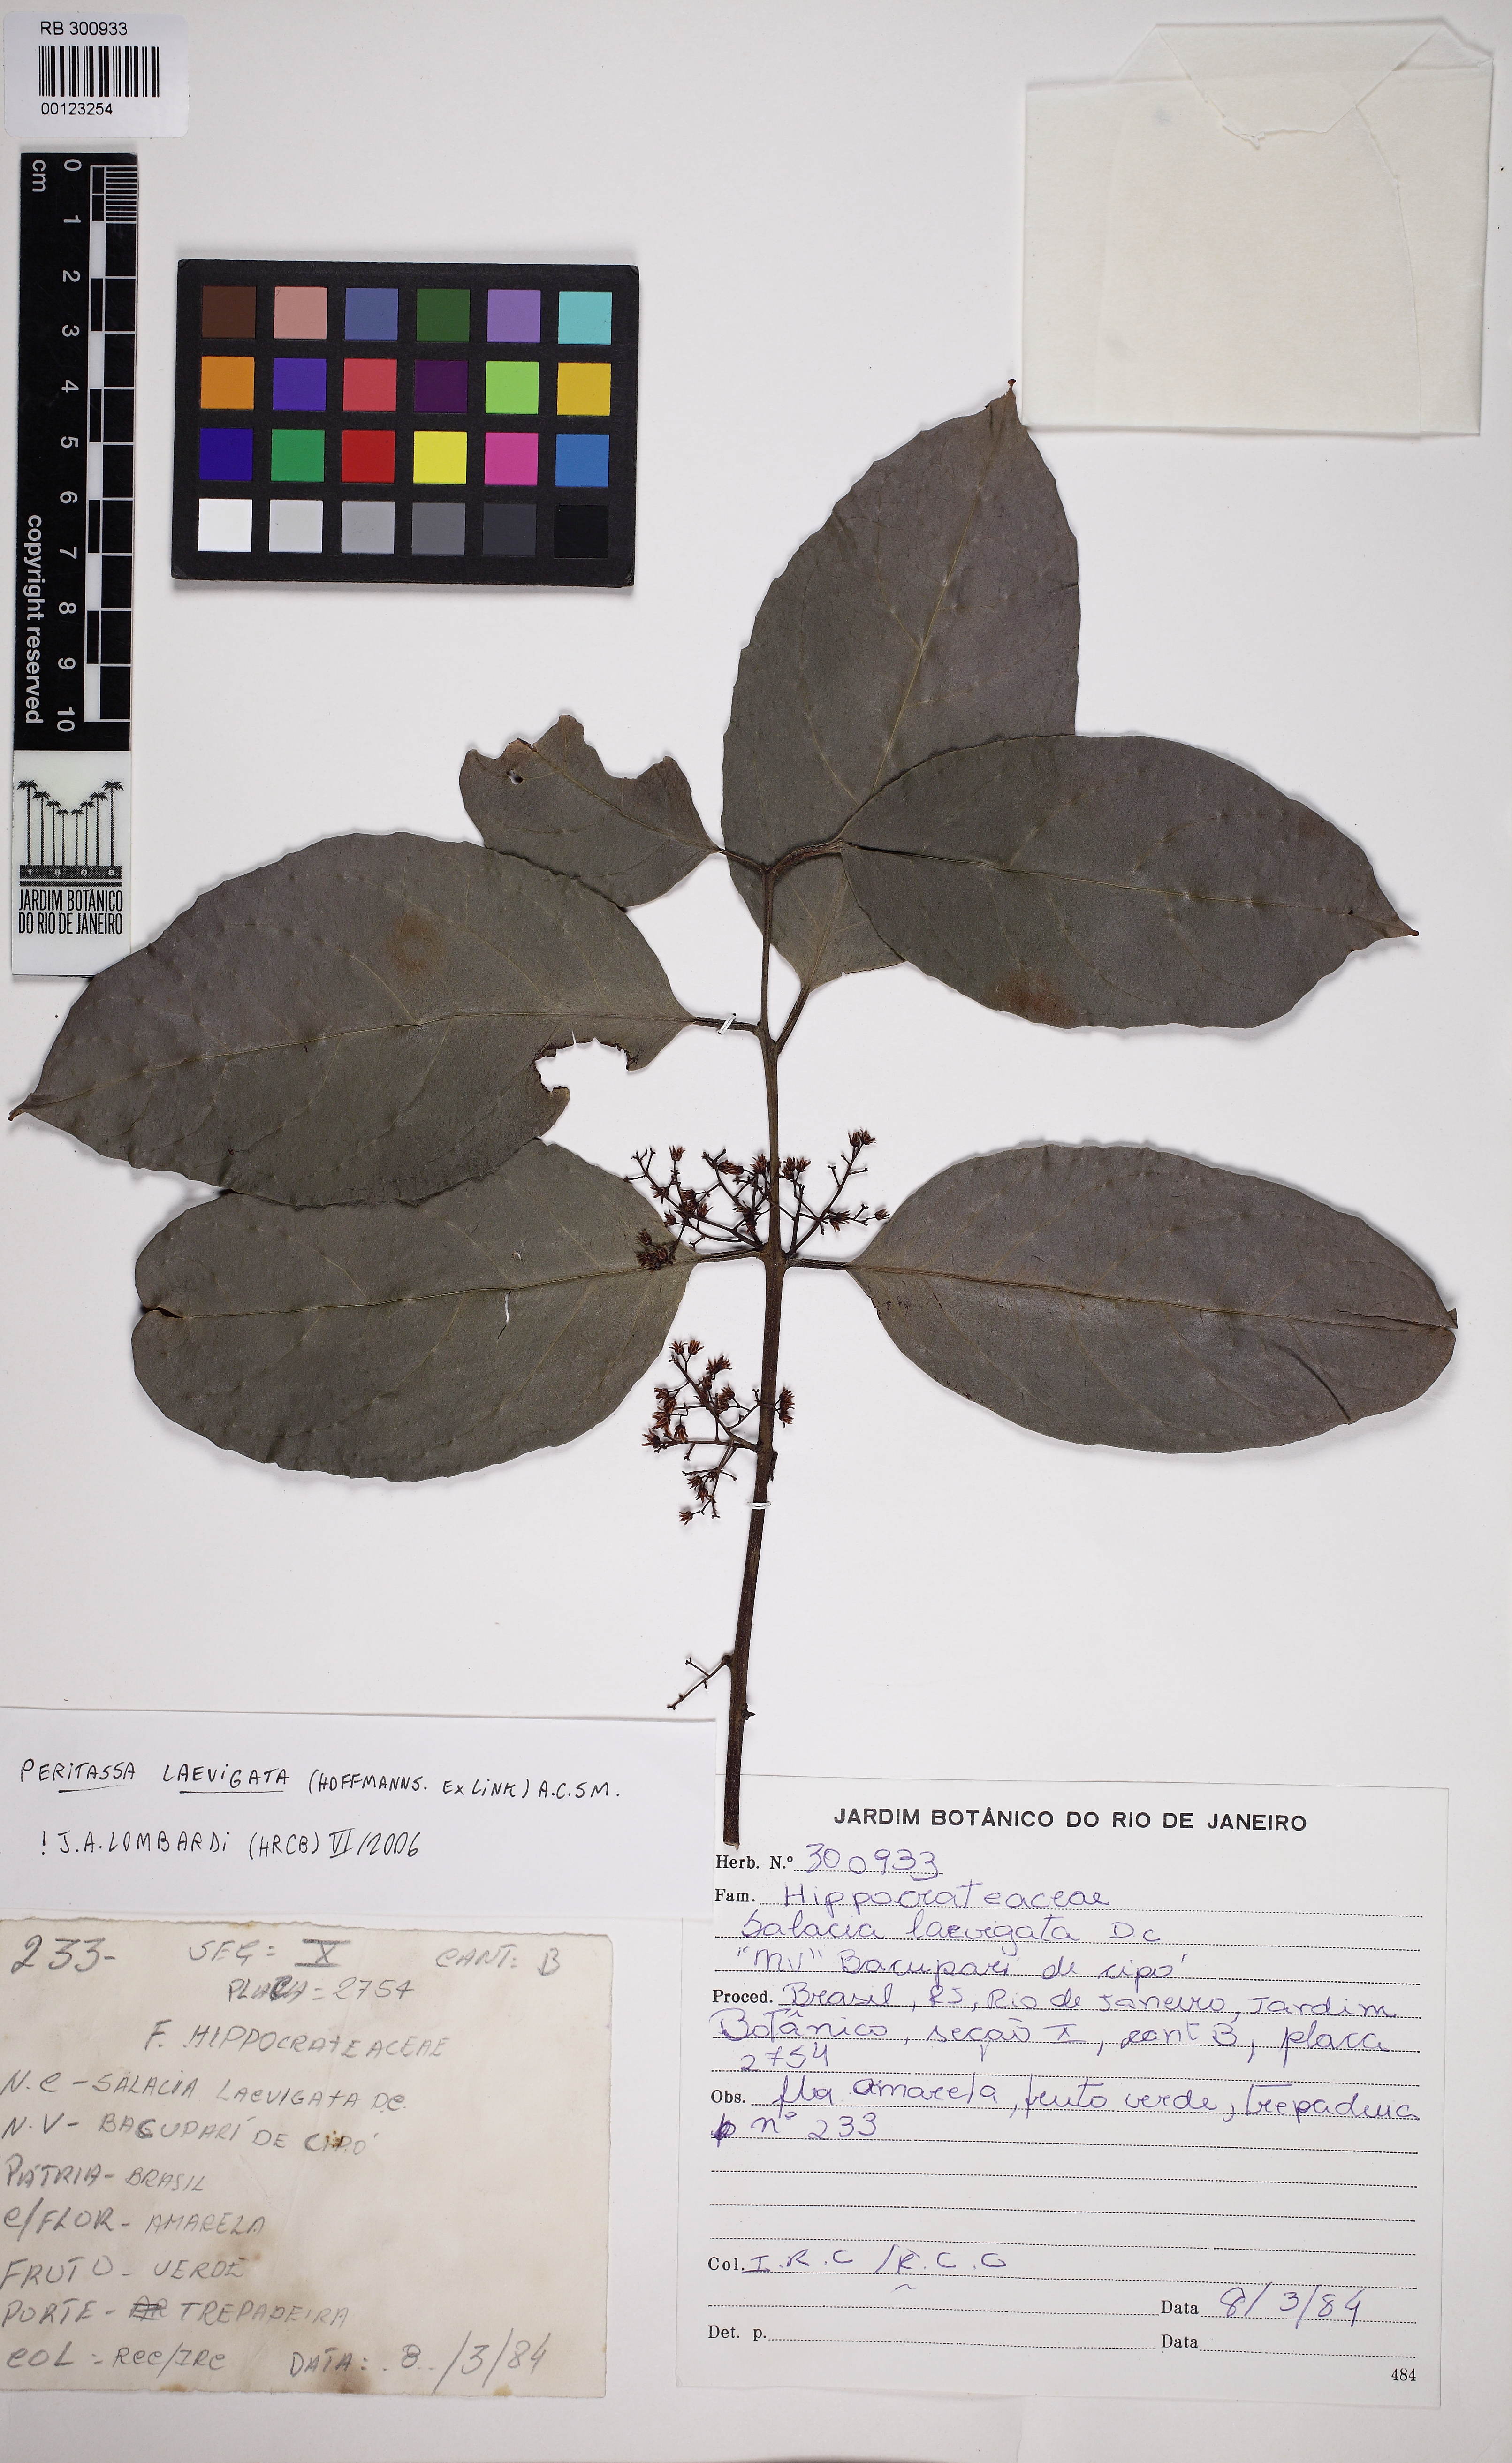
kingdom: Plantae
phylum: Tracheophyta
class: Magnoliopsida
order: Celastrales
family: Celastraceae
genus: Peritassa
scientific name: Peritassa laevigata
